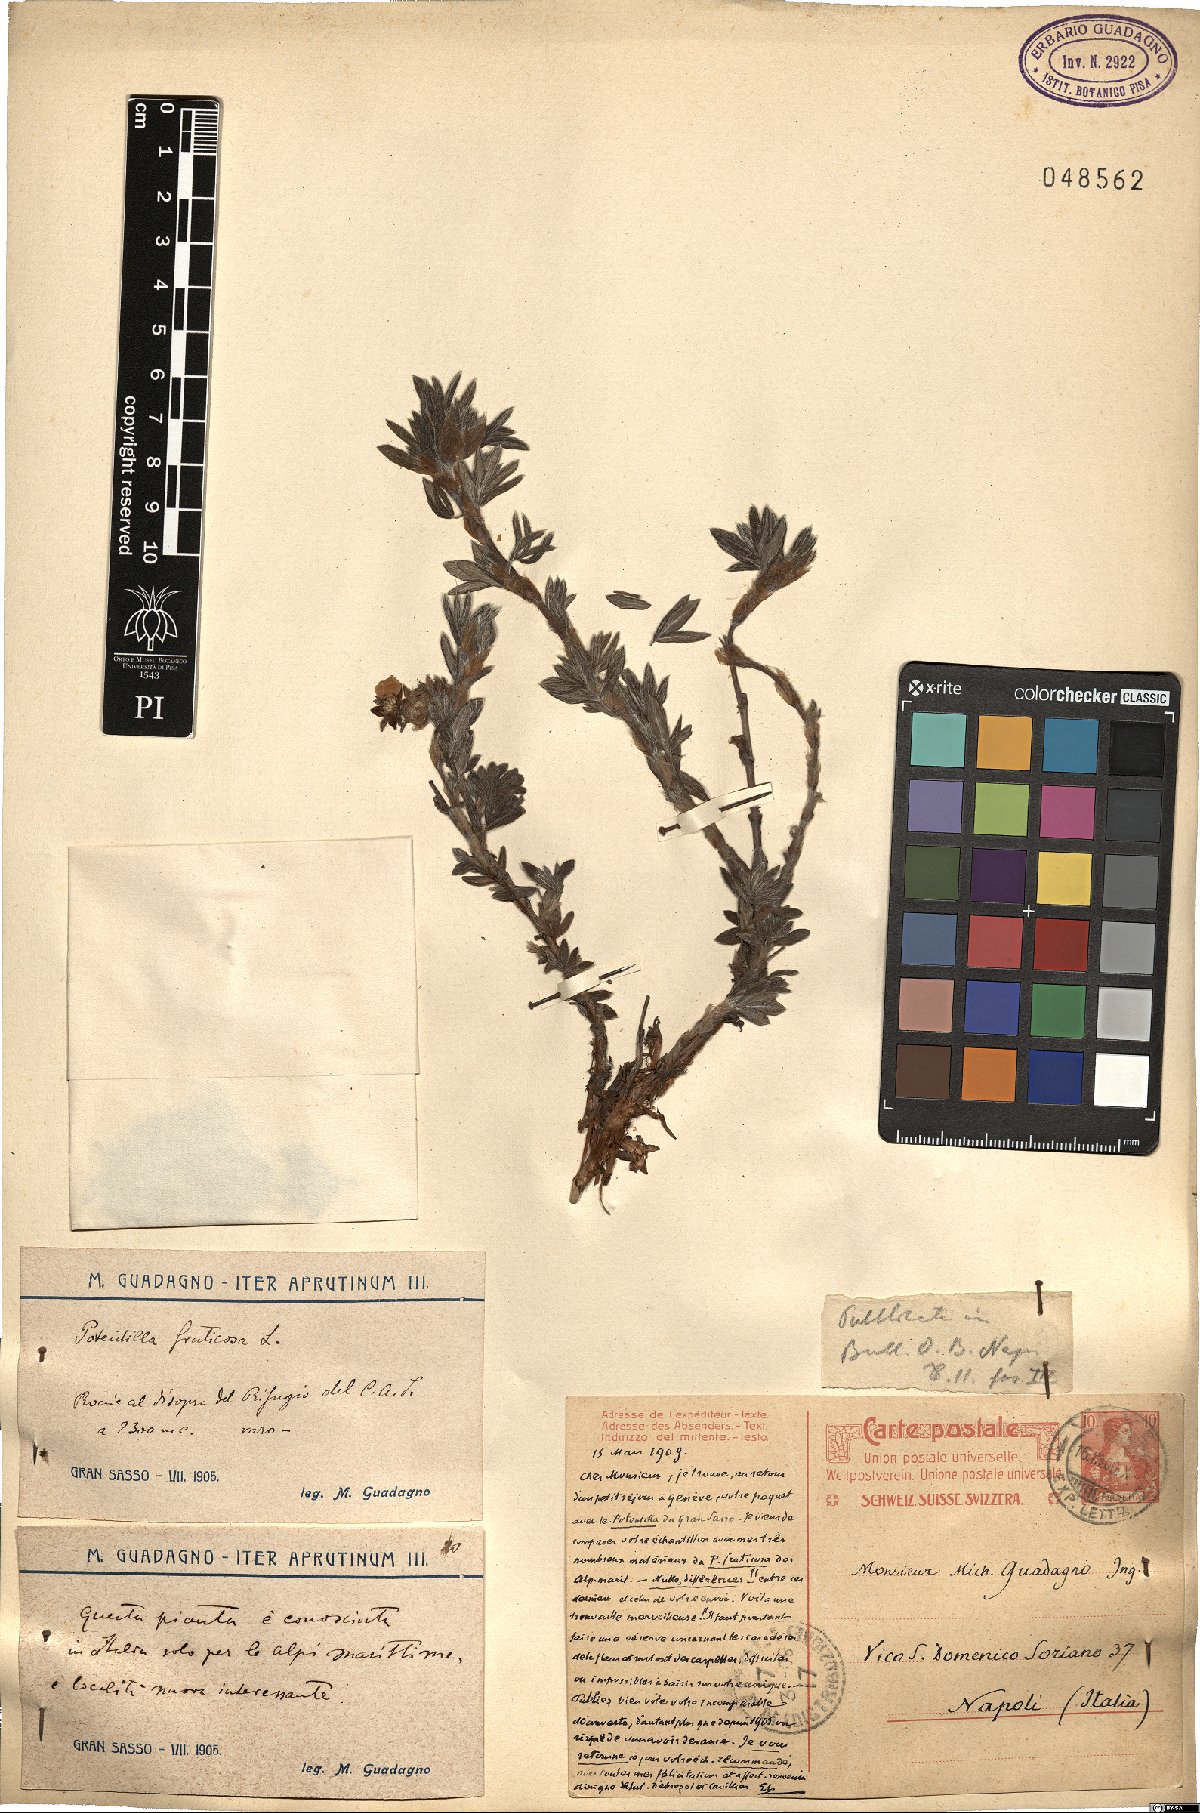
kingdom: Plantae
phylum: Tracheophyta
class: Magnoliopsida
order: Rosales
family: Rosaceae
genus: Dasiphora
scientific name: Dasiphora fruticosa
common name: Shrubby cinquefoil
